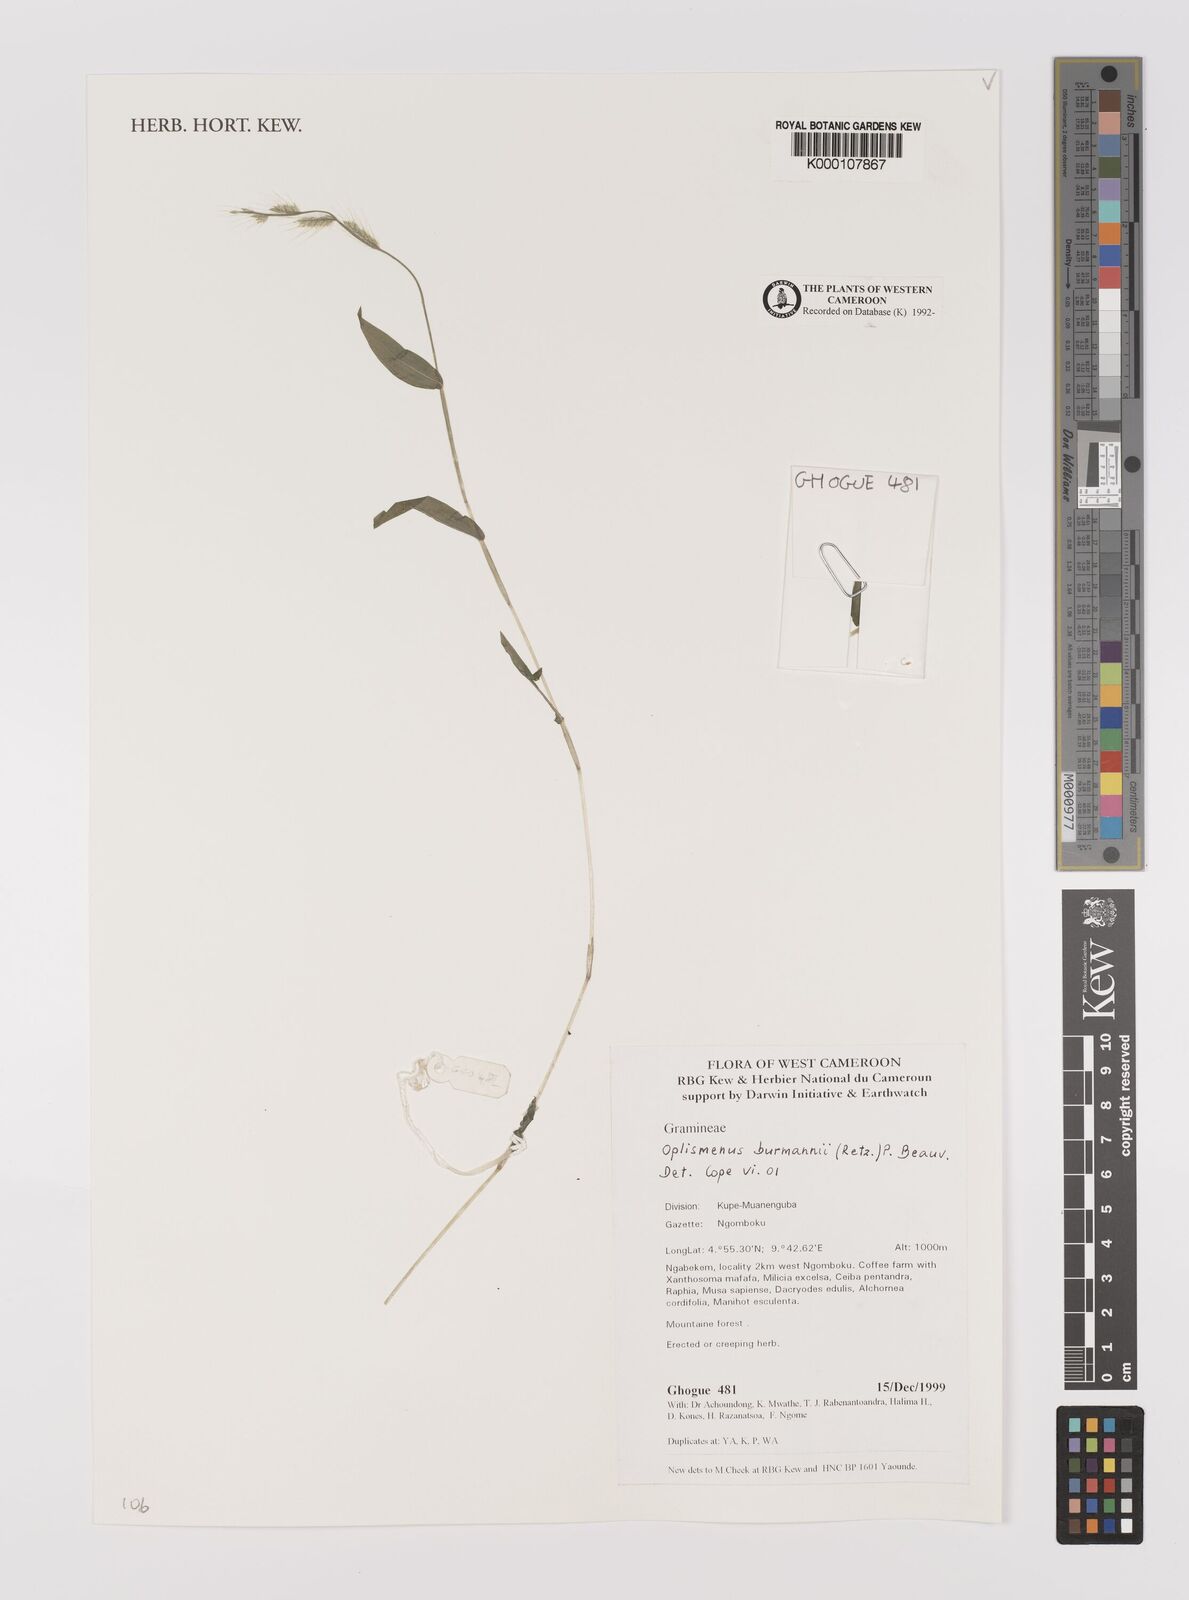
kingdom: Plantae
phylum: Tracheophyta
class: Liliopsida
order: Poales
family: Poaceae
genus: Oplismenus
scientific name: Oplismenus burmanni
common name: Burmann's basketgrass
